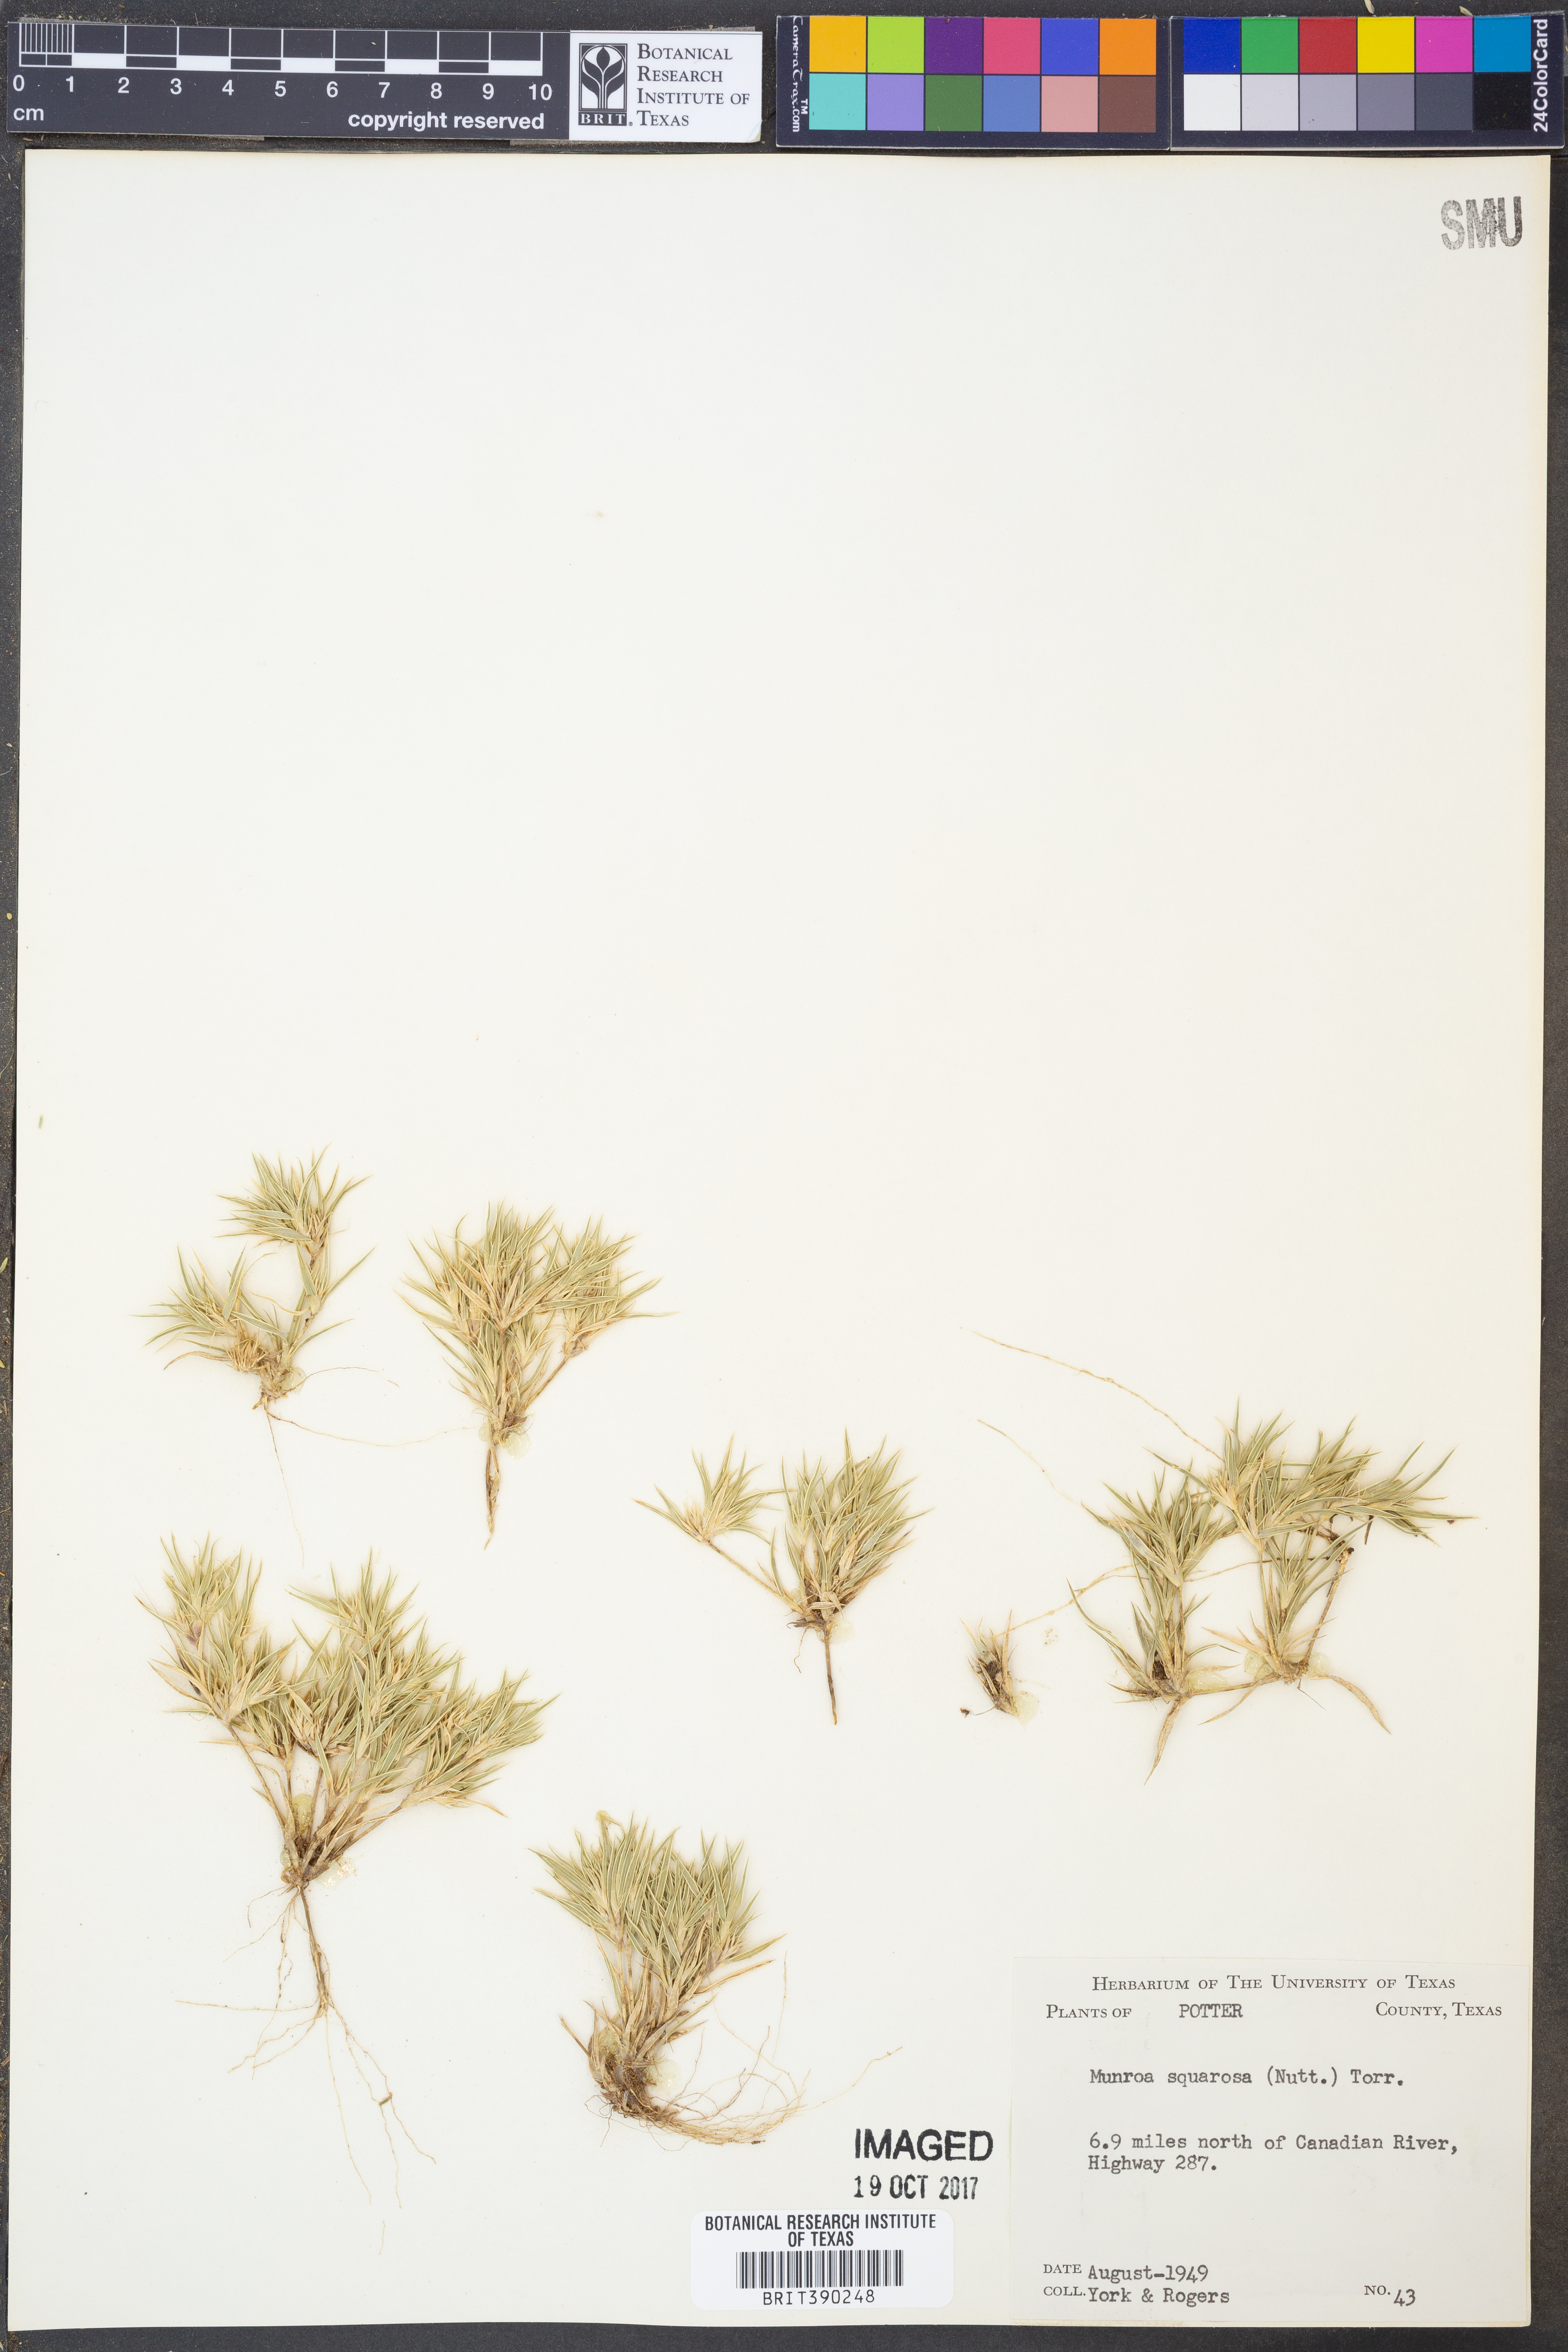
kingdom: Plantae
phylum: Tracheophyta
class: Liliopsida
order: Poales
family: Poaceae
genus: Munroa
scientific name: Munroa squarrosa
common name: False buffalo grass
